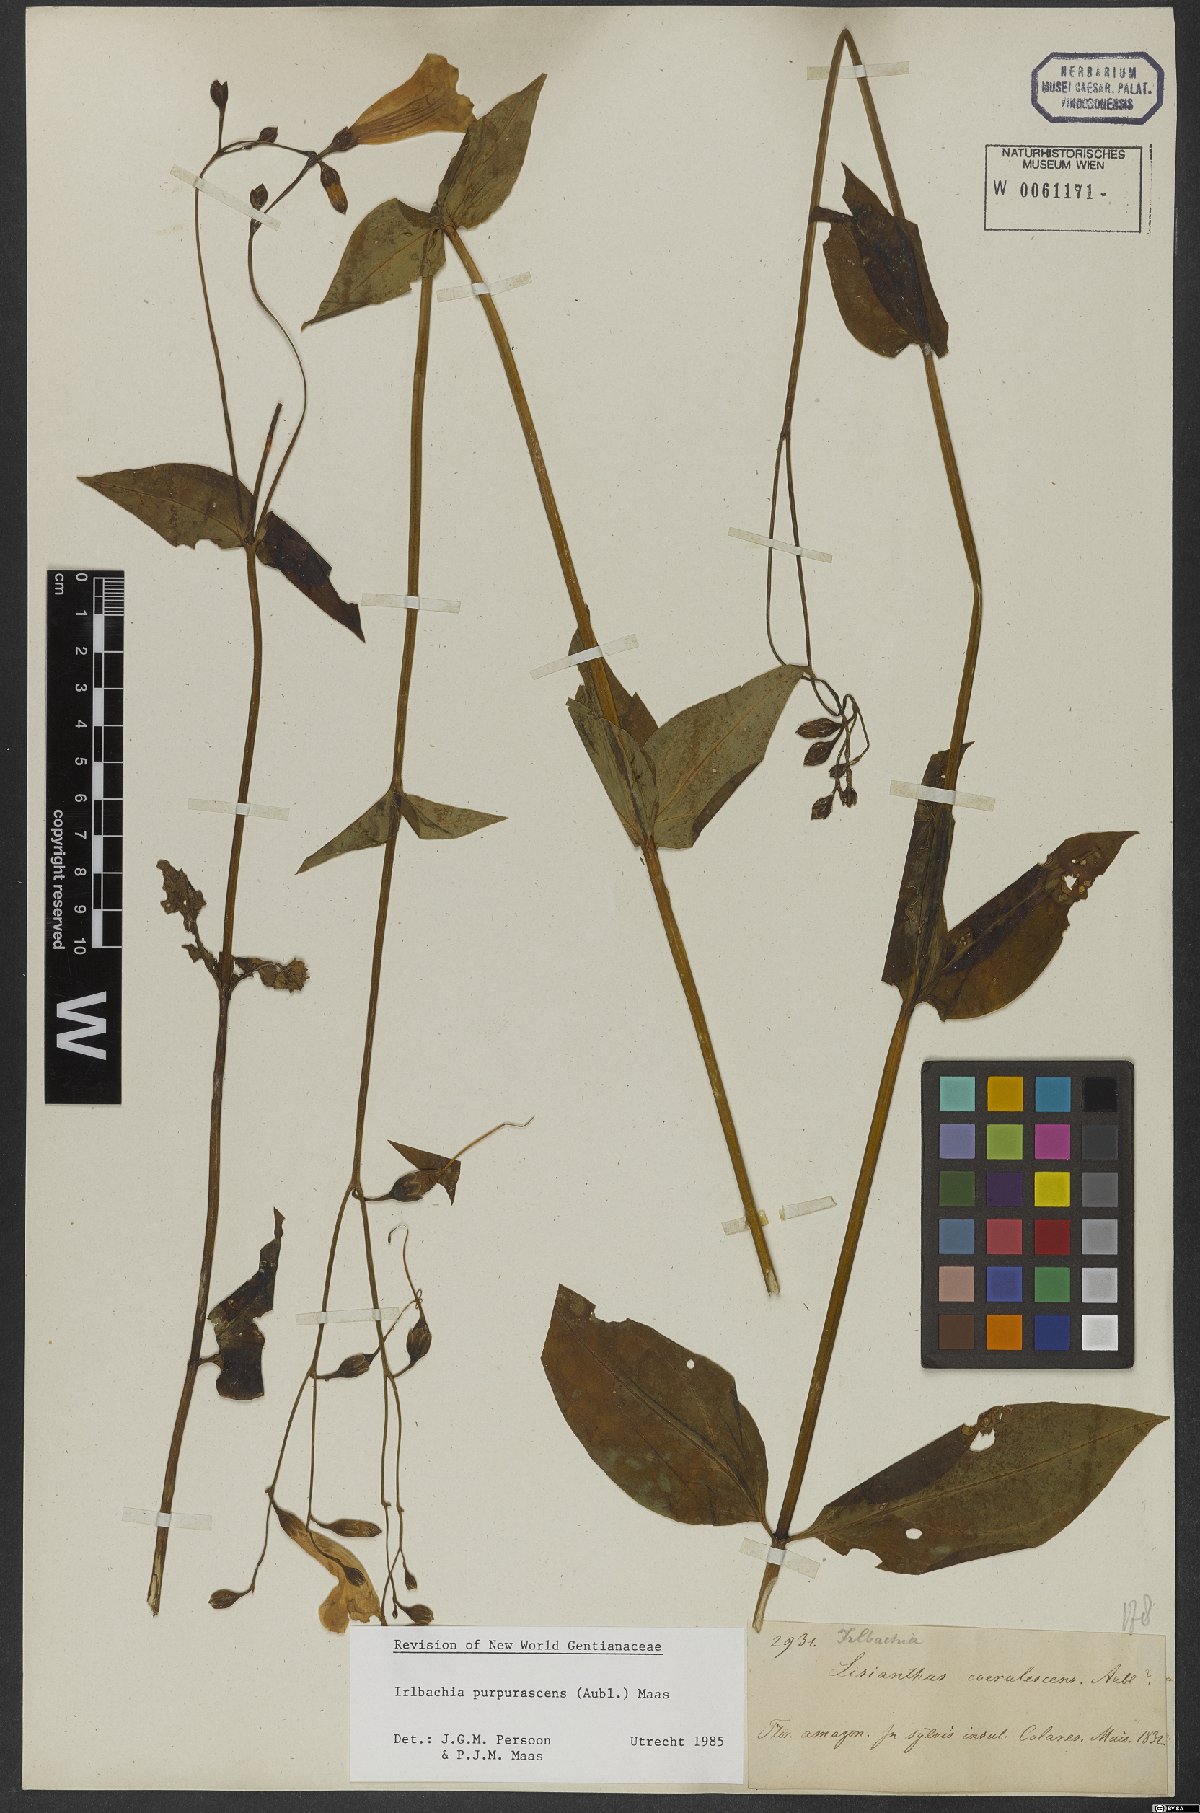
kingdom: Plantae
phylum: Tracheophyta
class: Magnoliopsida
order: Gentianales
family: Gentianaceae
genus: Chelonanthus
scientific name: Chelonanthus purpurascens
